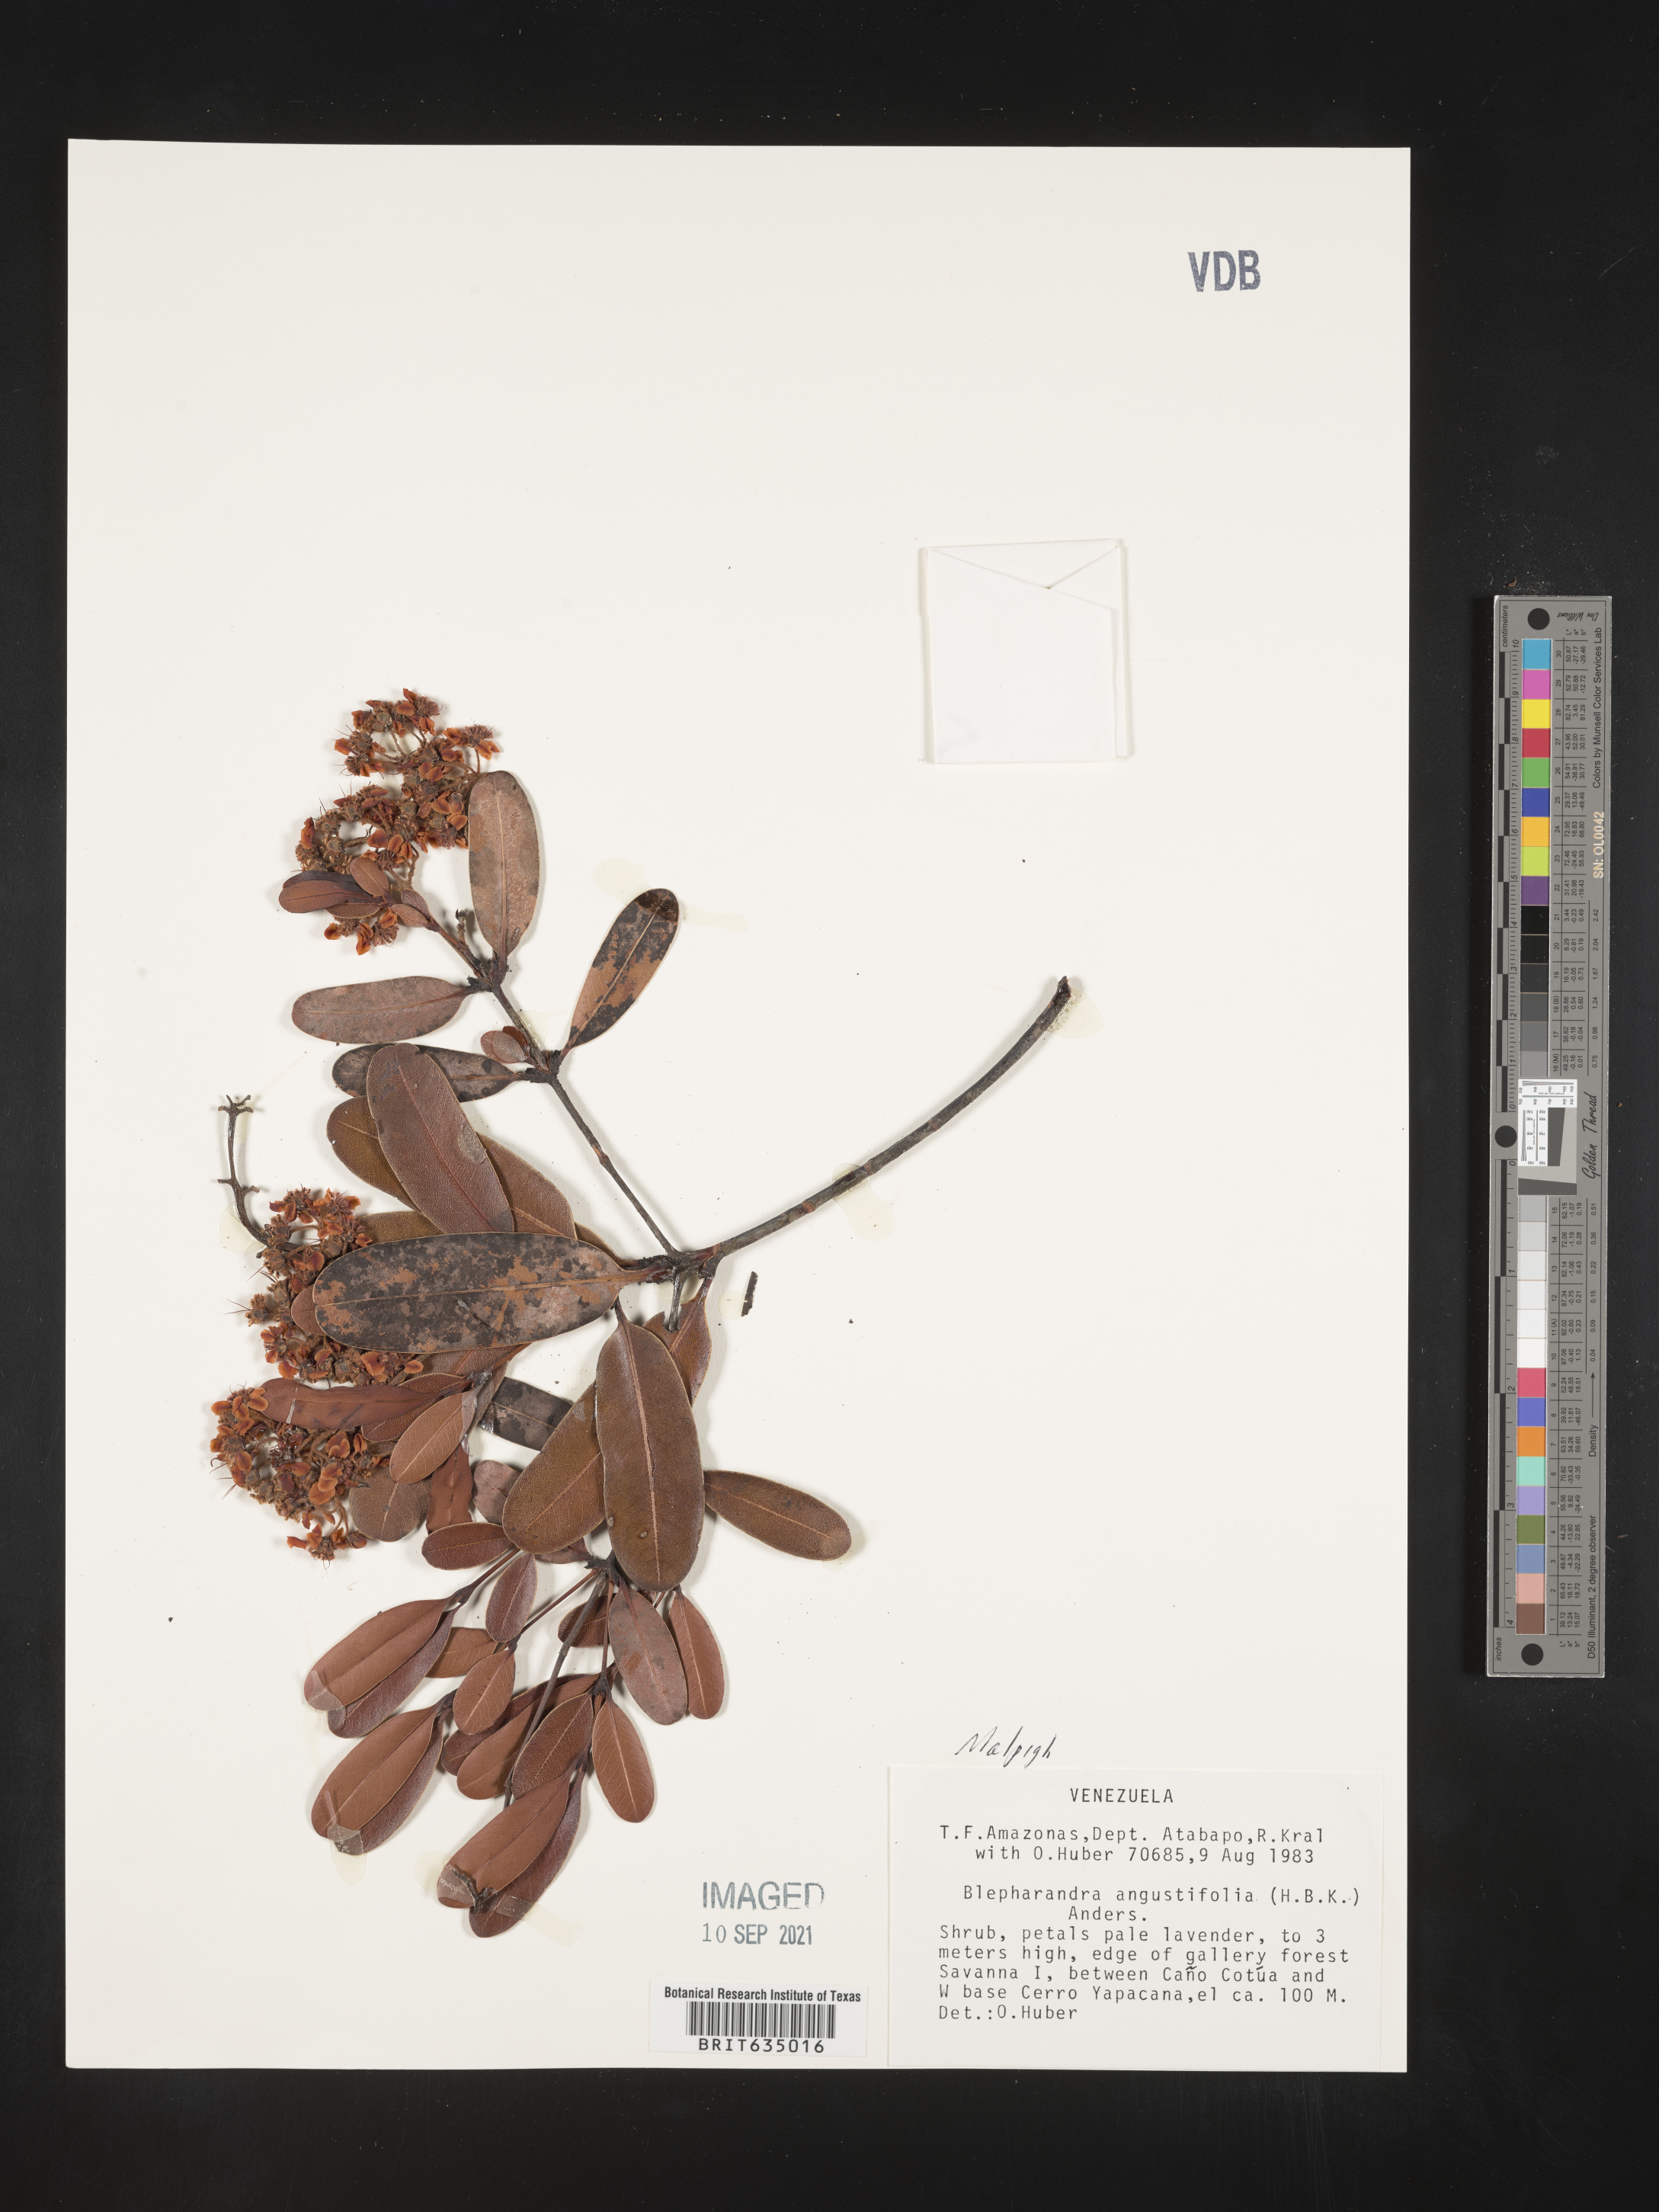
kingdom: Plantae
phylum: Tracheophyta
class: Magnoliopsida
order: Malpighiales
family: Malpighiaceae
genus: Blepharandra
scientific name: Blepharandra
